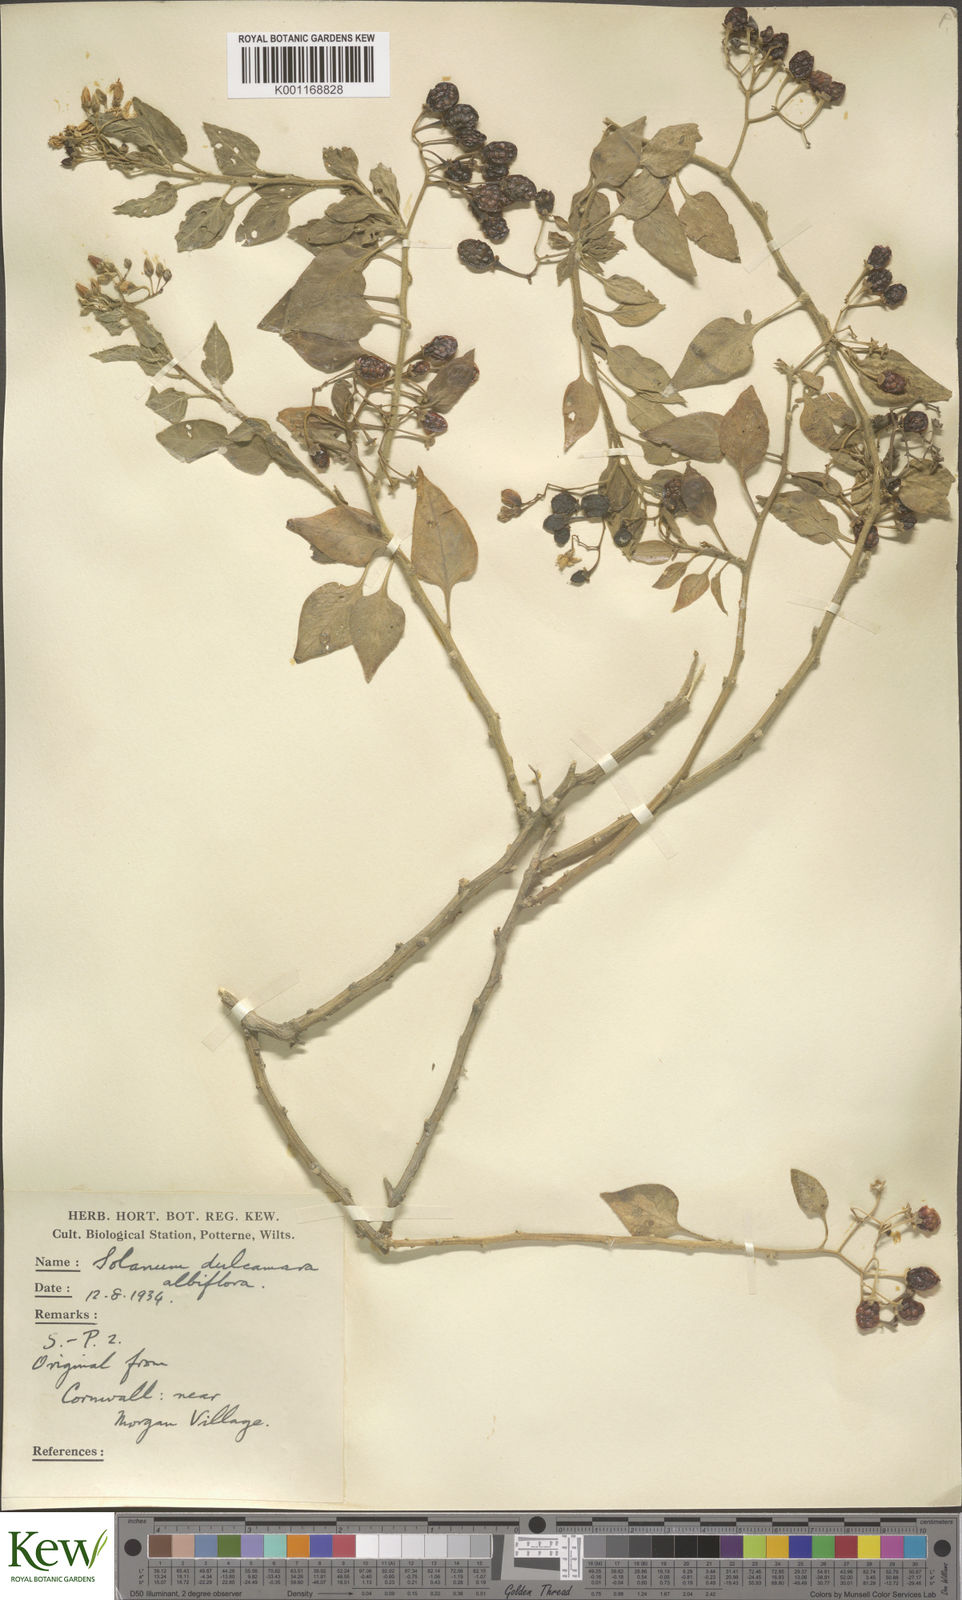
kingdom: Plantae
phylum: Tracheophyta
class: Magnoliopsida
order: Solanales
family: Solanaceae
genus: Solanum
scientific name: Solanum dulcamara
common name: Climbing nightshade
